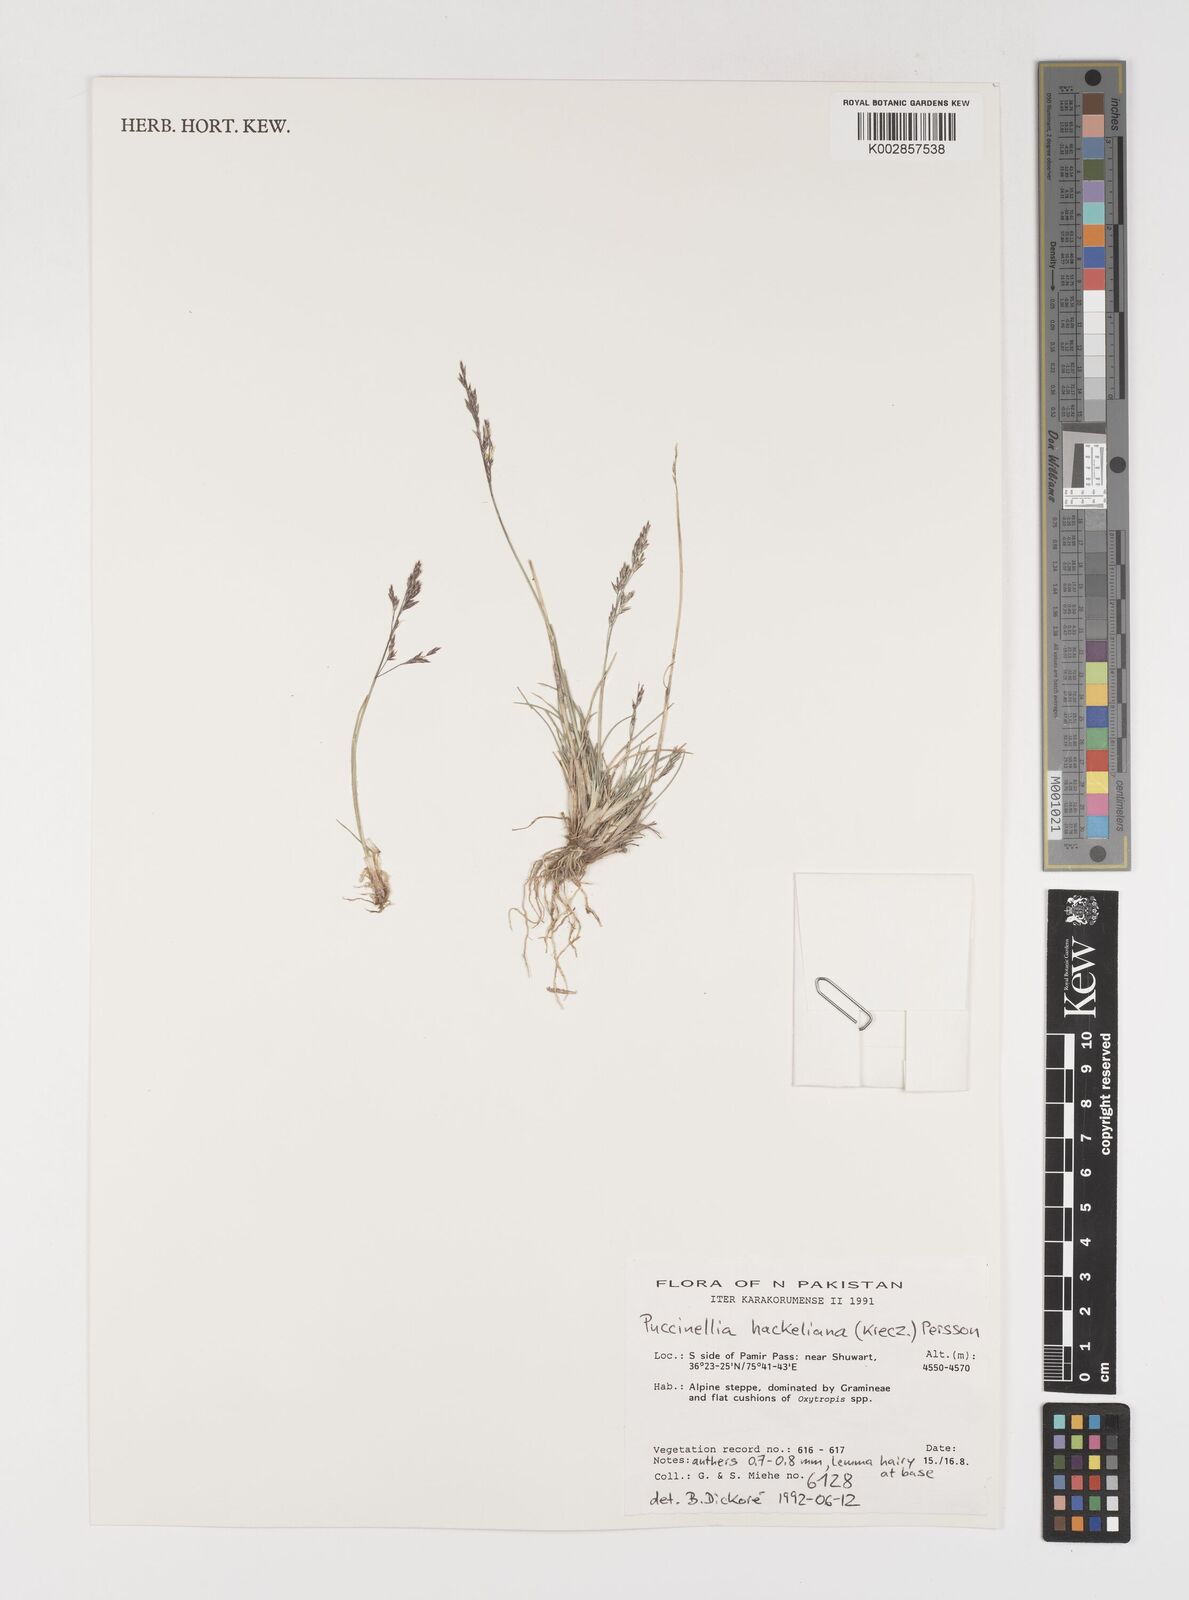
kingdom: Plantae
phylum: Tracheophyta
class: Liliopsida
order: Poales
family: Poaceae
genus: Puccinellia
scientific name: Puccinellia hackeliana
